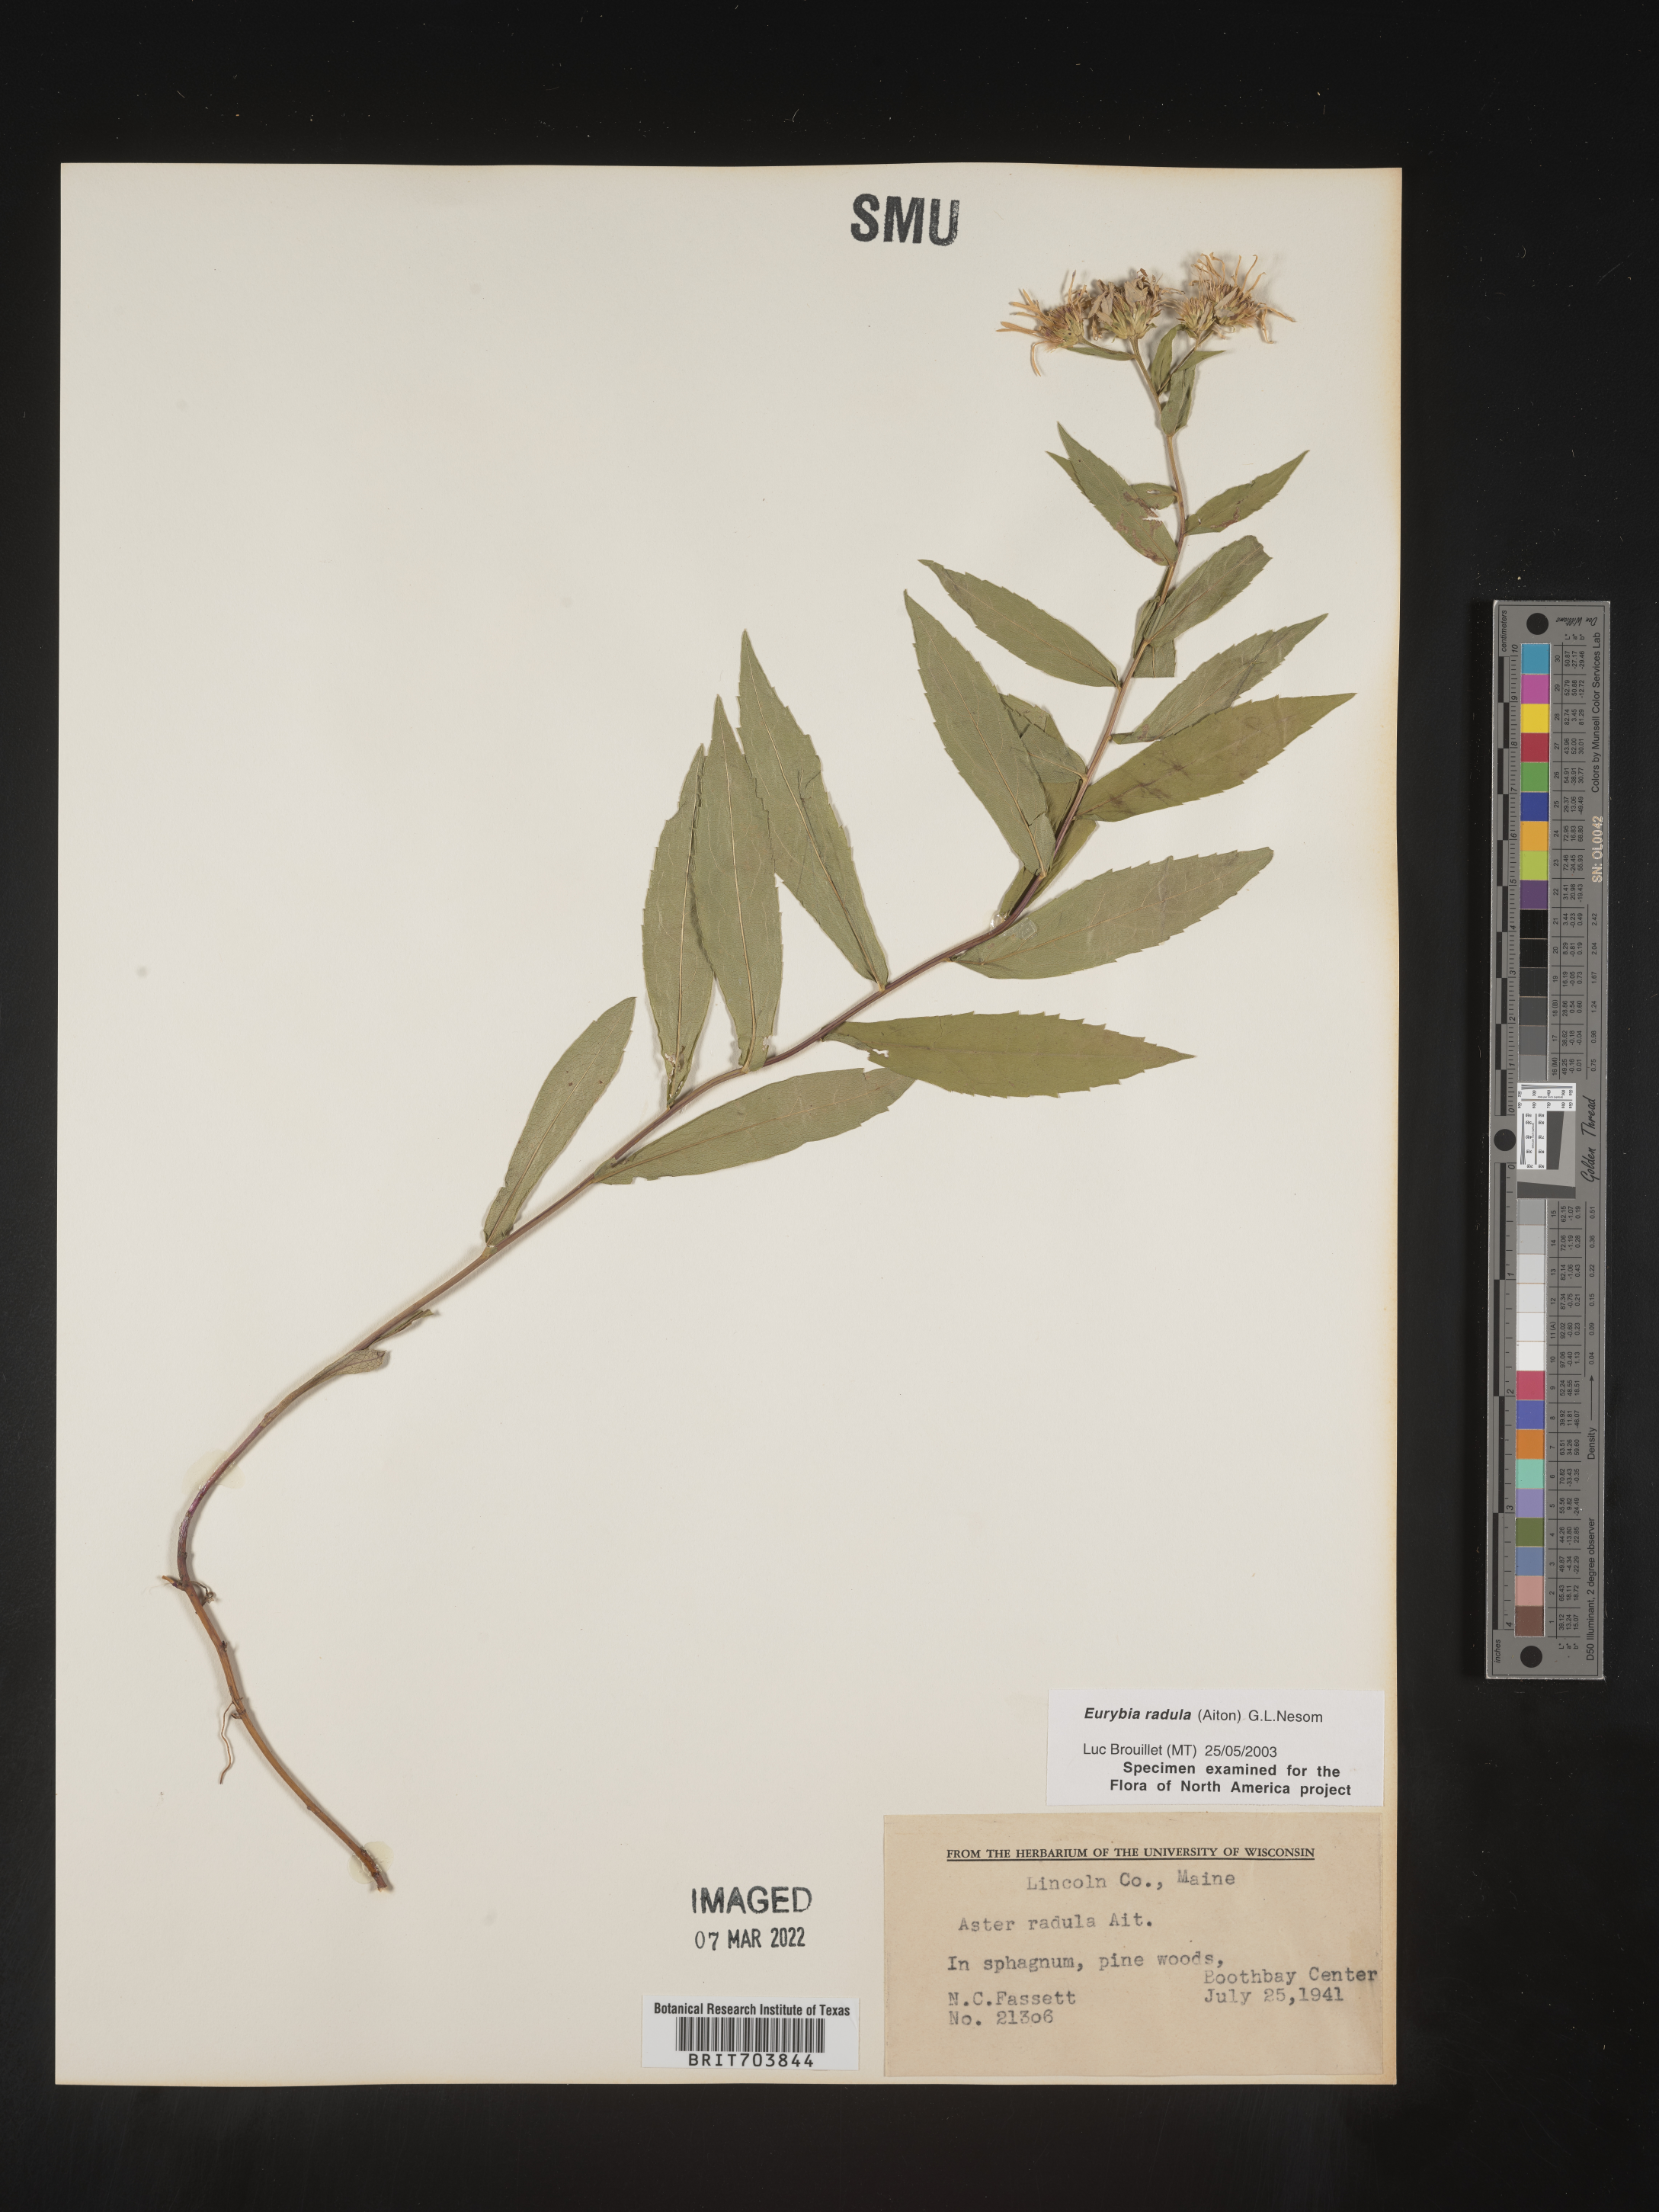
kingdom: Plantae
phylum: Tracheophyta
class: Magnoliopsida
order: Asterales
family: Asteraceae
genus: Eurybia
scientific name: Eurybia radula
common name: Low rough aster
